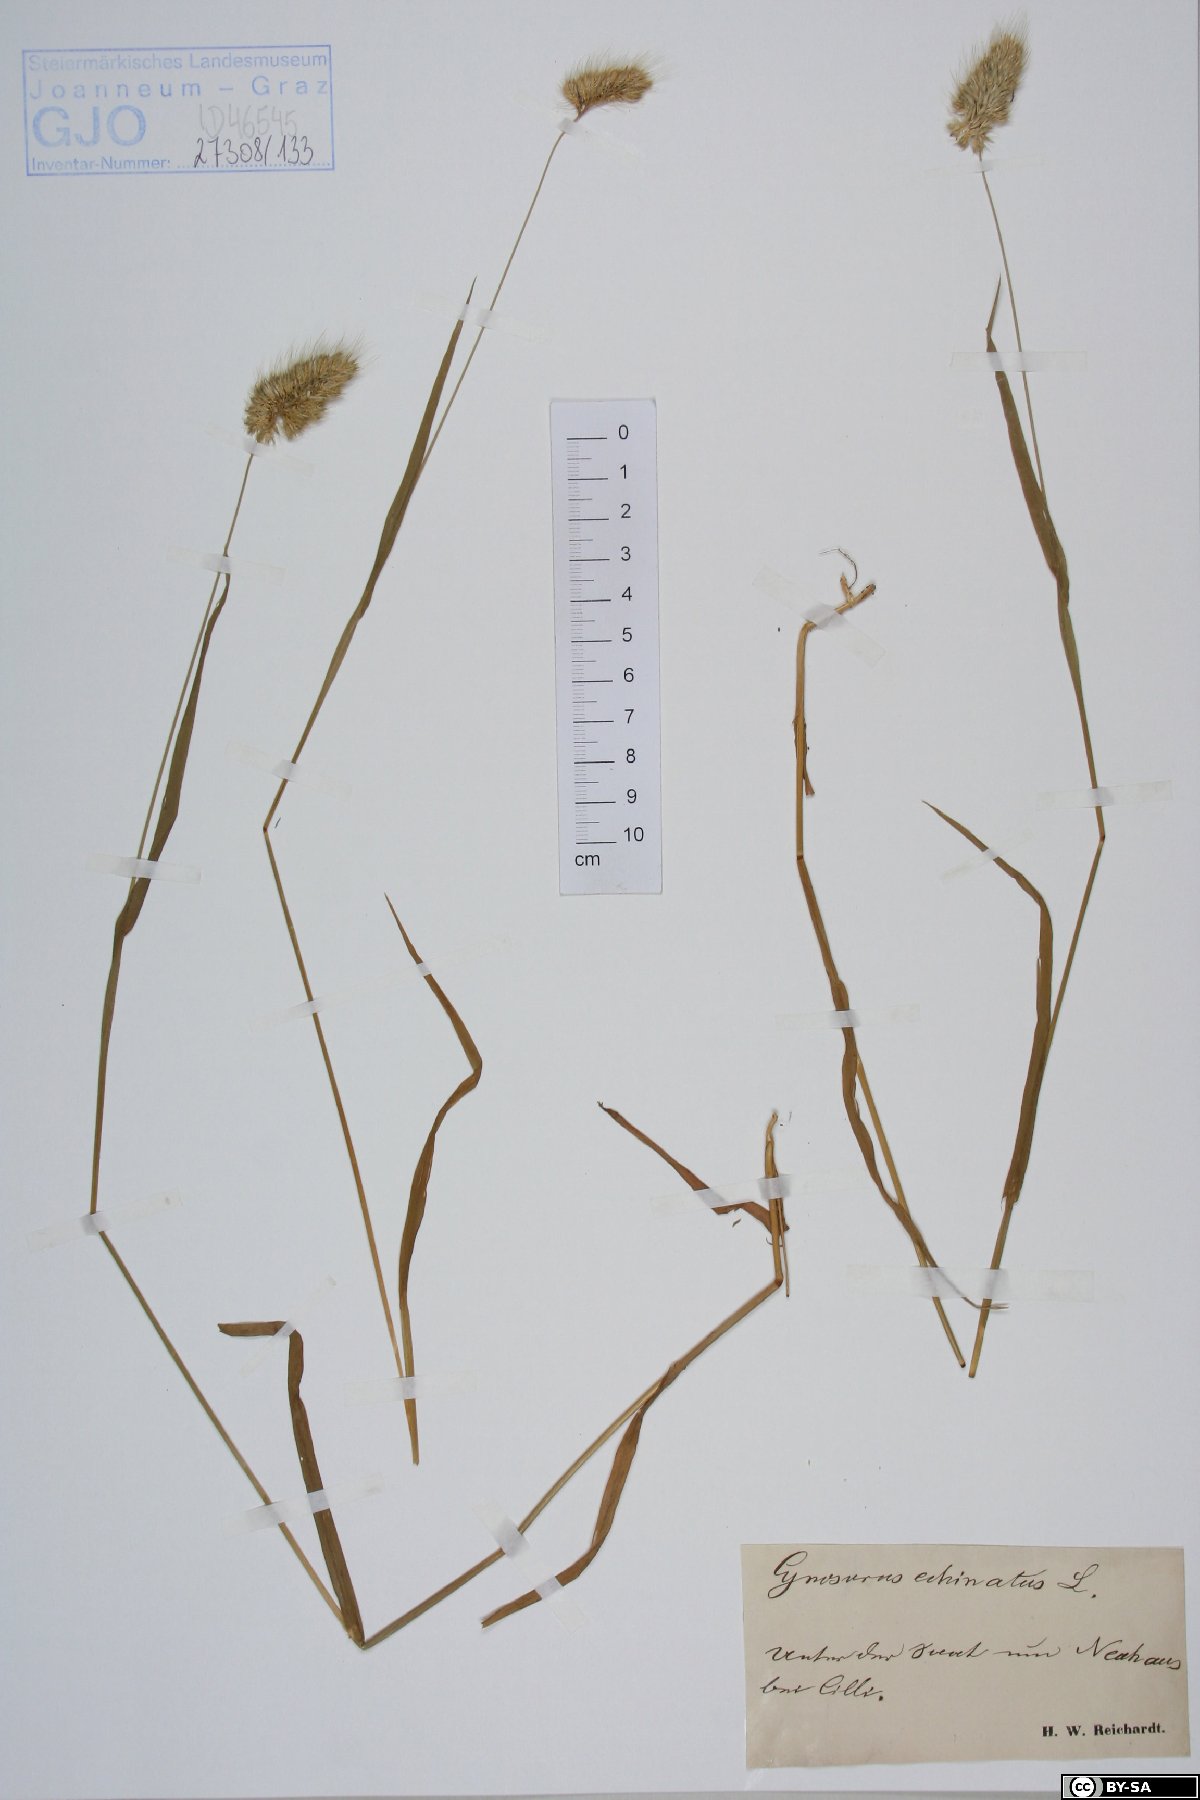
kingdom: Plantae
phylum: Tracheophyta
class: Liliopsida
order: Poales
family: Poaceae
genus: Cynosurus
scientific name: Cynosurus echinatus
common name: Rough dog's-tail
